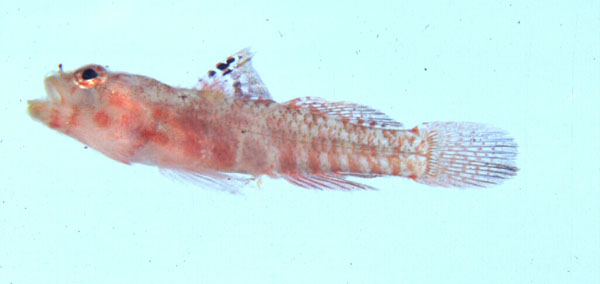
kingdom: Animalia
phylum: Chordata
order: Perciformes
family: Gobiidae
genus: Sueviota
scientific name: Sueviota lachneri
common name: Ernie's sueviota
